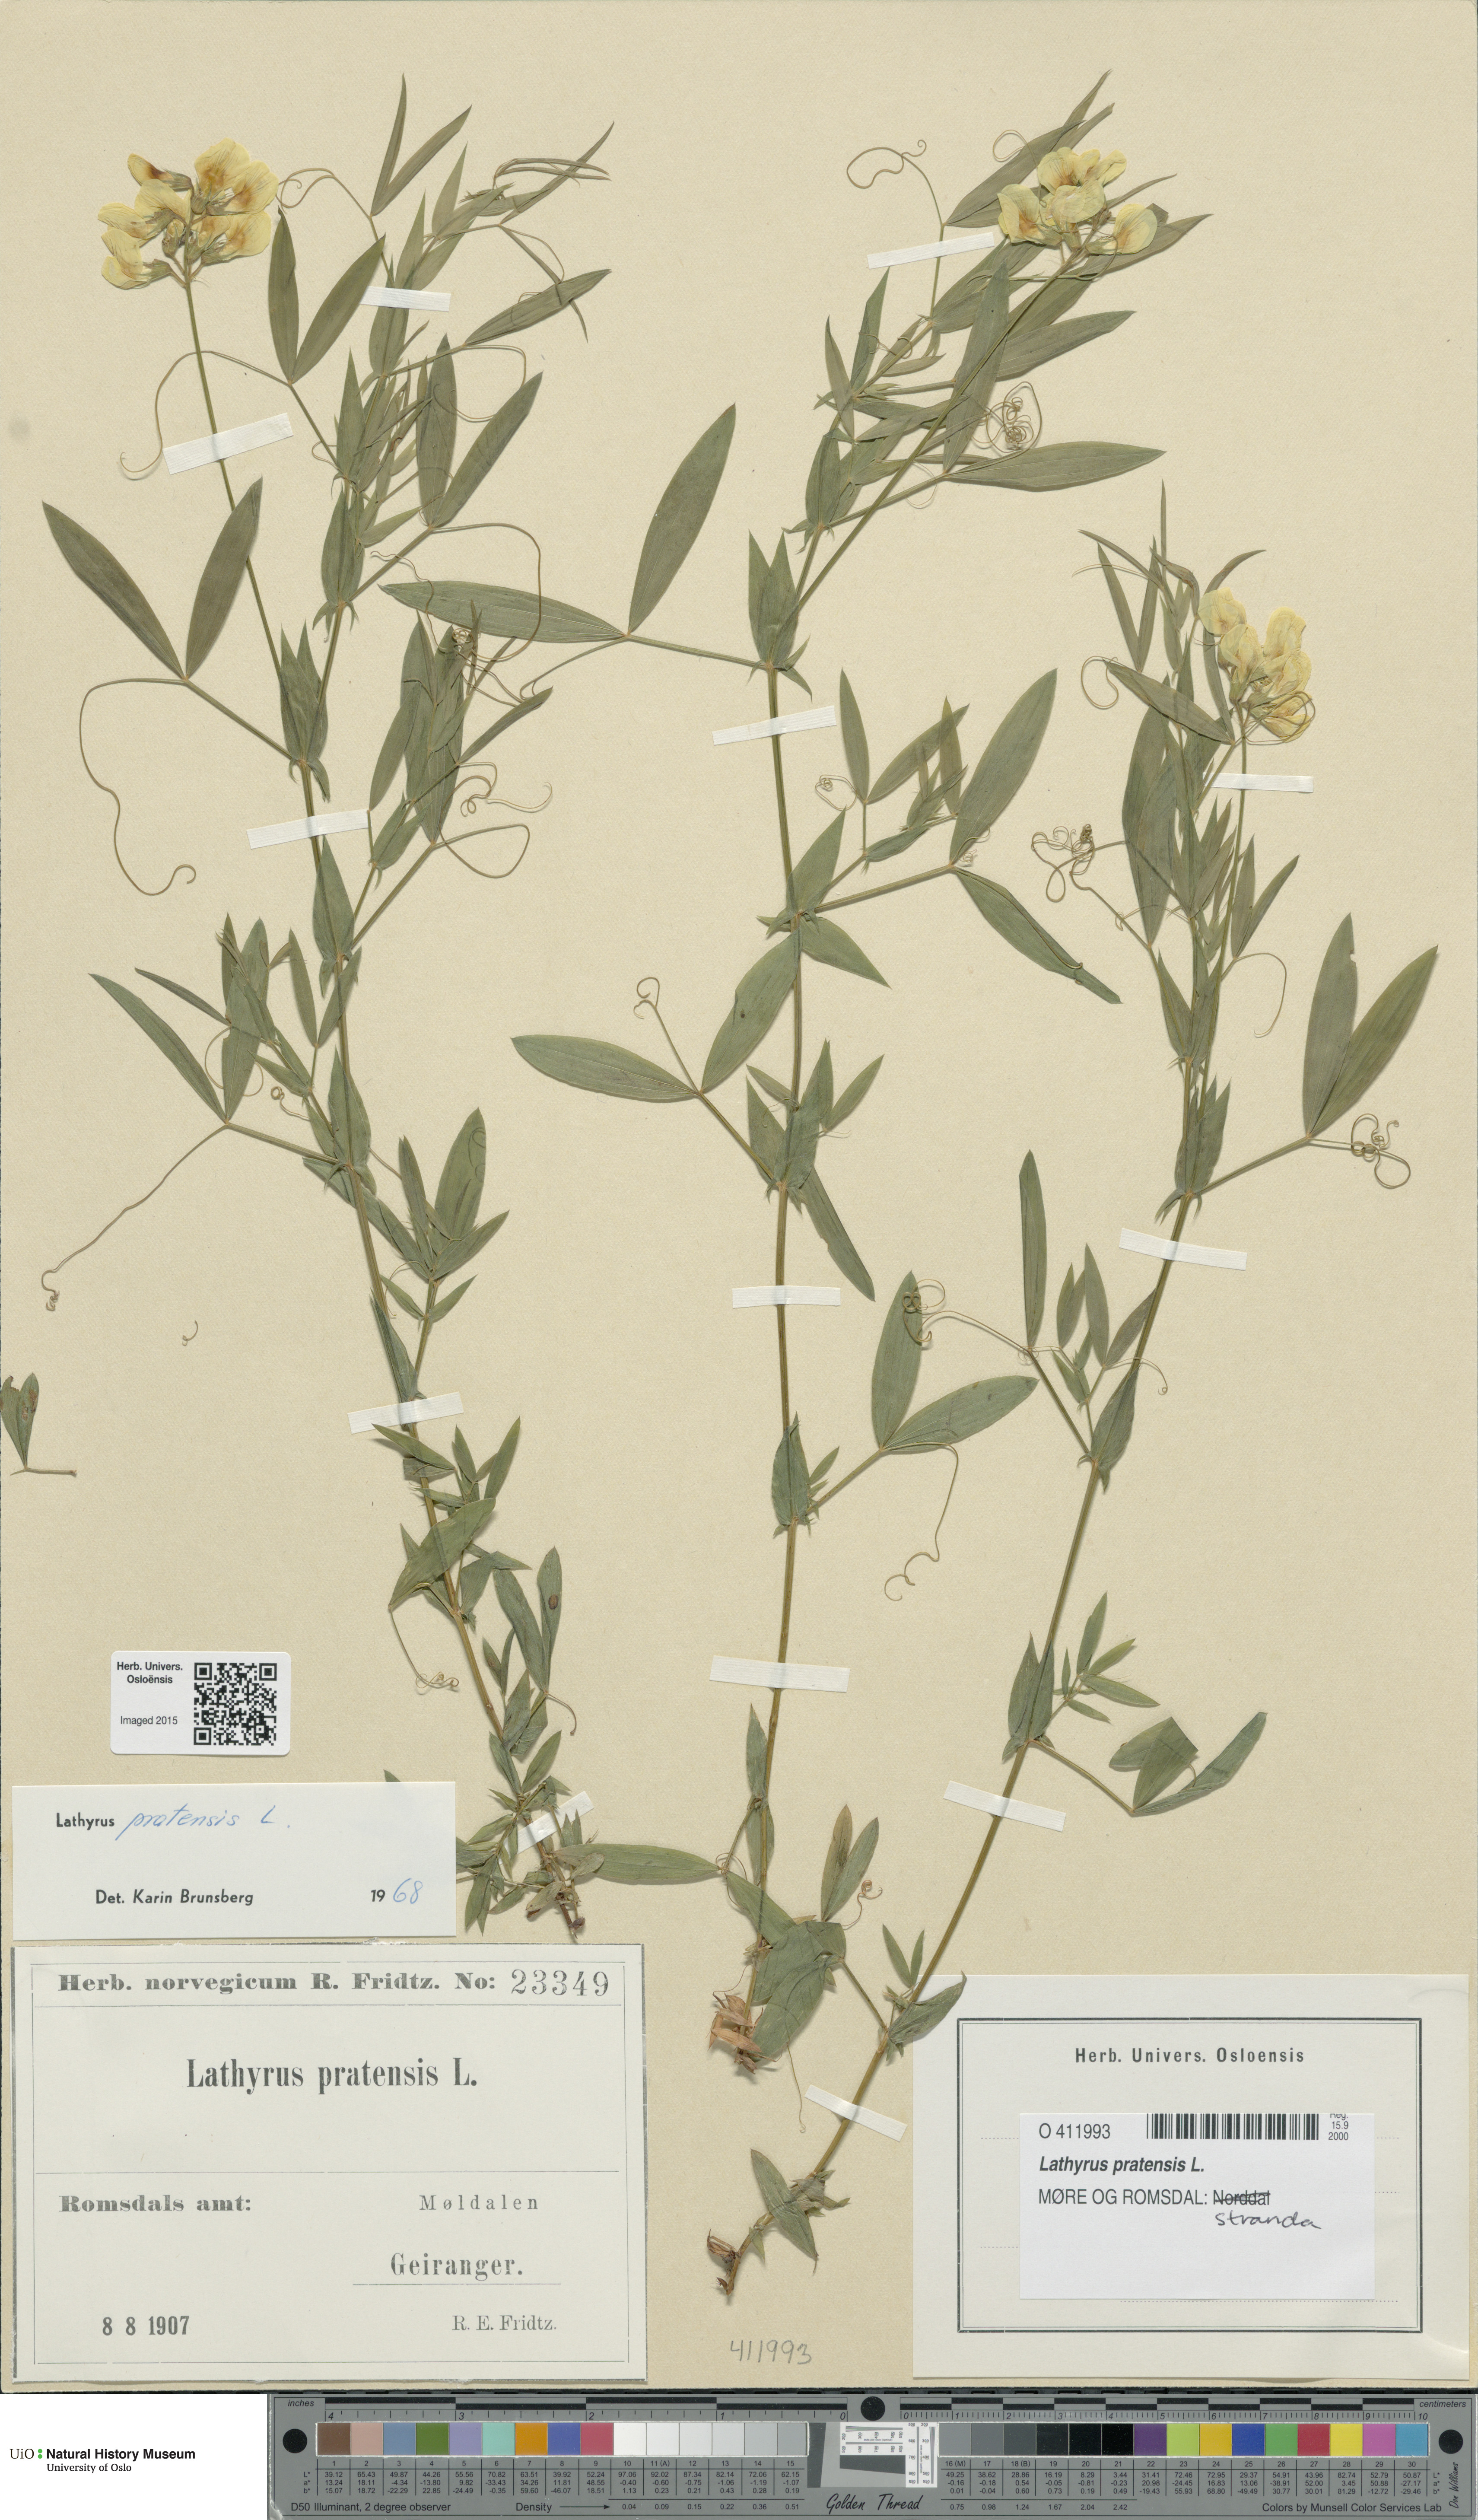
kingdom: Plantae
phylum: Tracheophyta
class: Magnoliopsida
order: Fabales
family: Fabaceae
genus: Lathyrus
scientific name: Lathyrus pratensis
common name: Meadow vetchling
